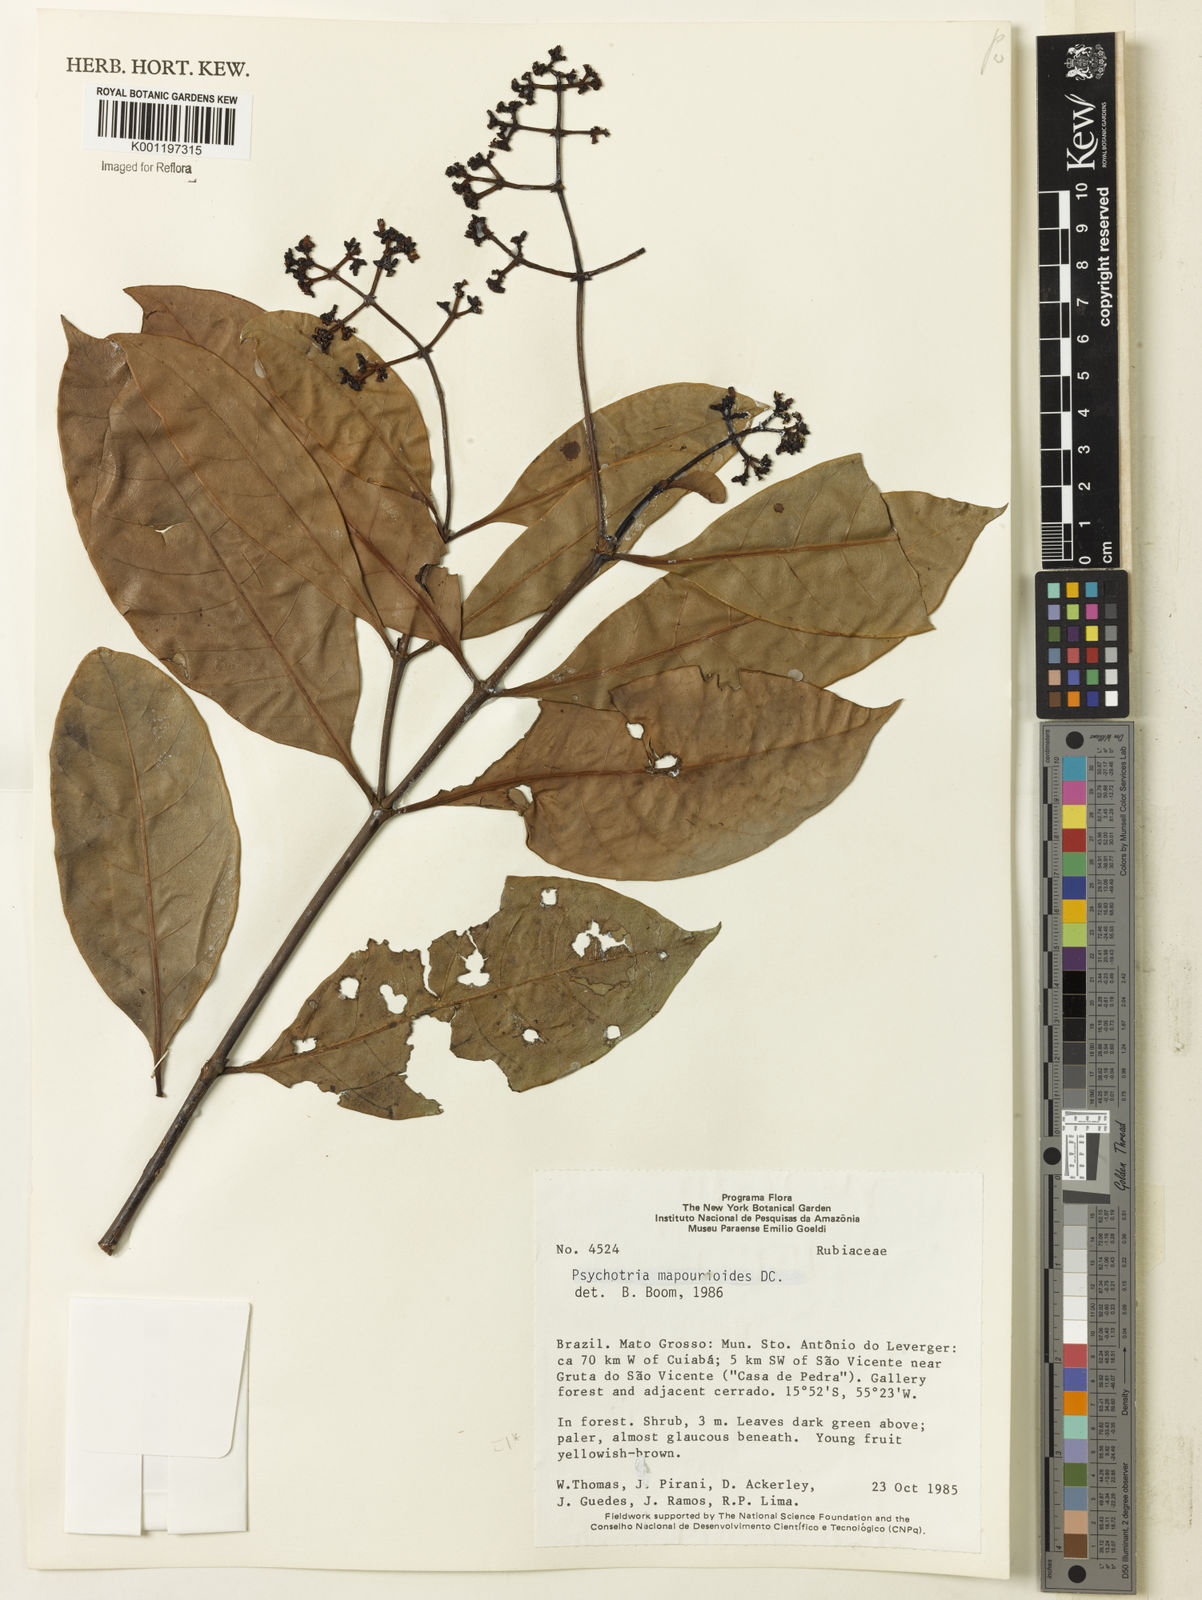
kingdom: Plantae
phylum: Tracheophyta
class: Magnoliopsida
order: Gentianales
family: Rubiaceae
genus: Psychotria
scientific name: Psychotria pedunculosa
